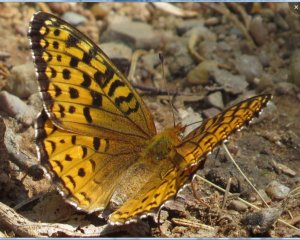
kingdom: Animalia
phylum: Arthropoda
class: Insecta
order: Lepidoptera
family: Nymphalidae
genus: Speyeria
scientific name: Speyeria atlantis
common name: Atlantis Fritillary
